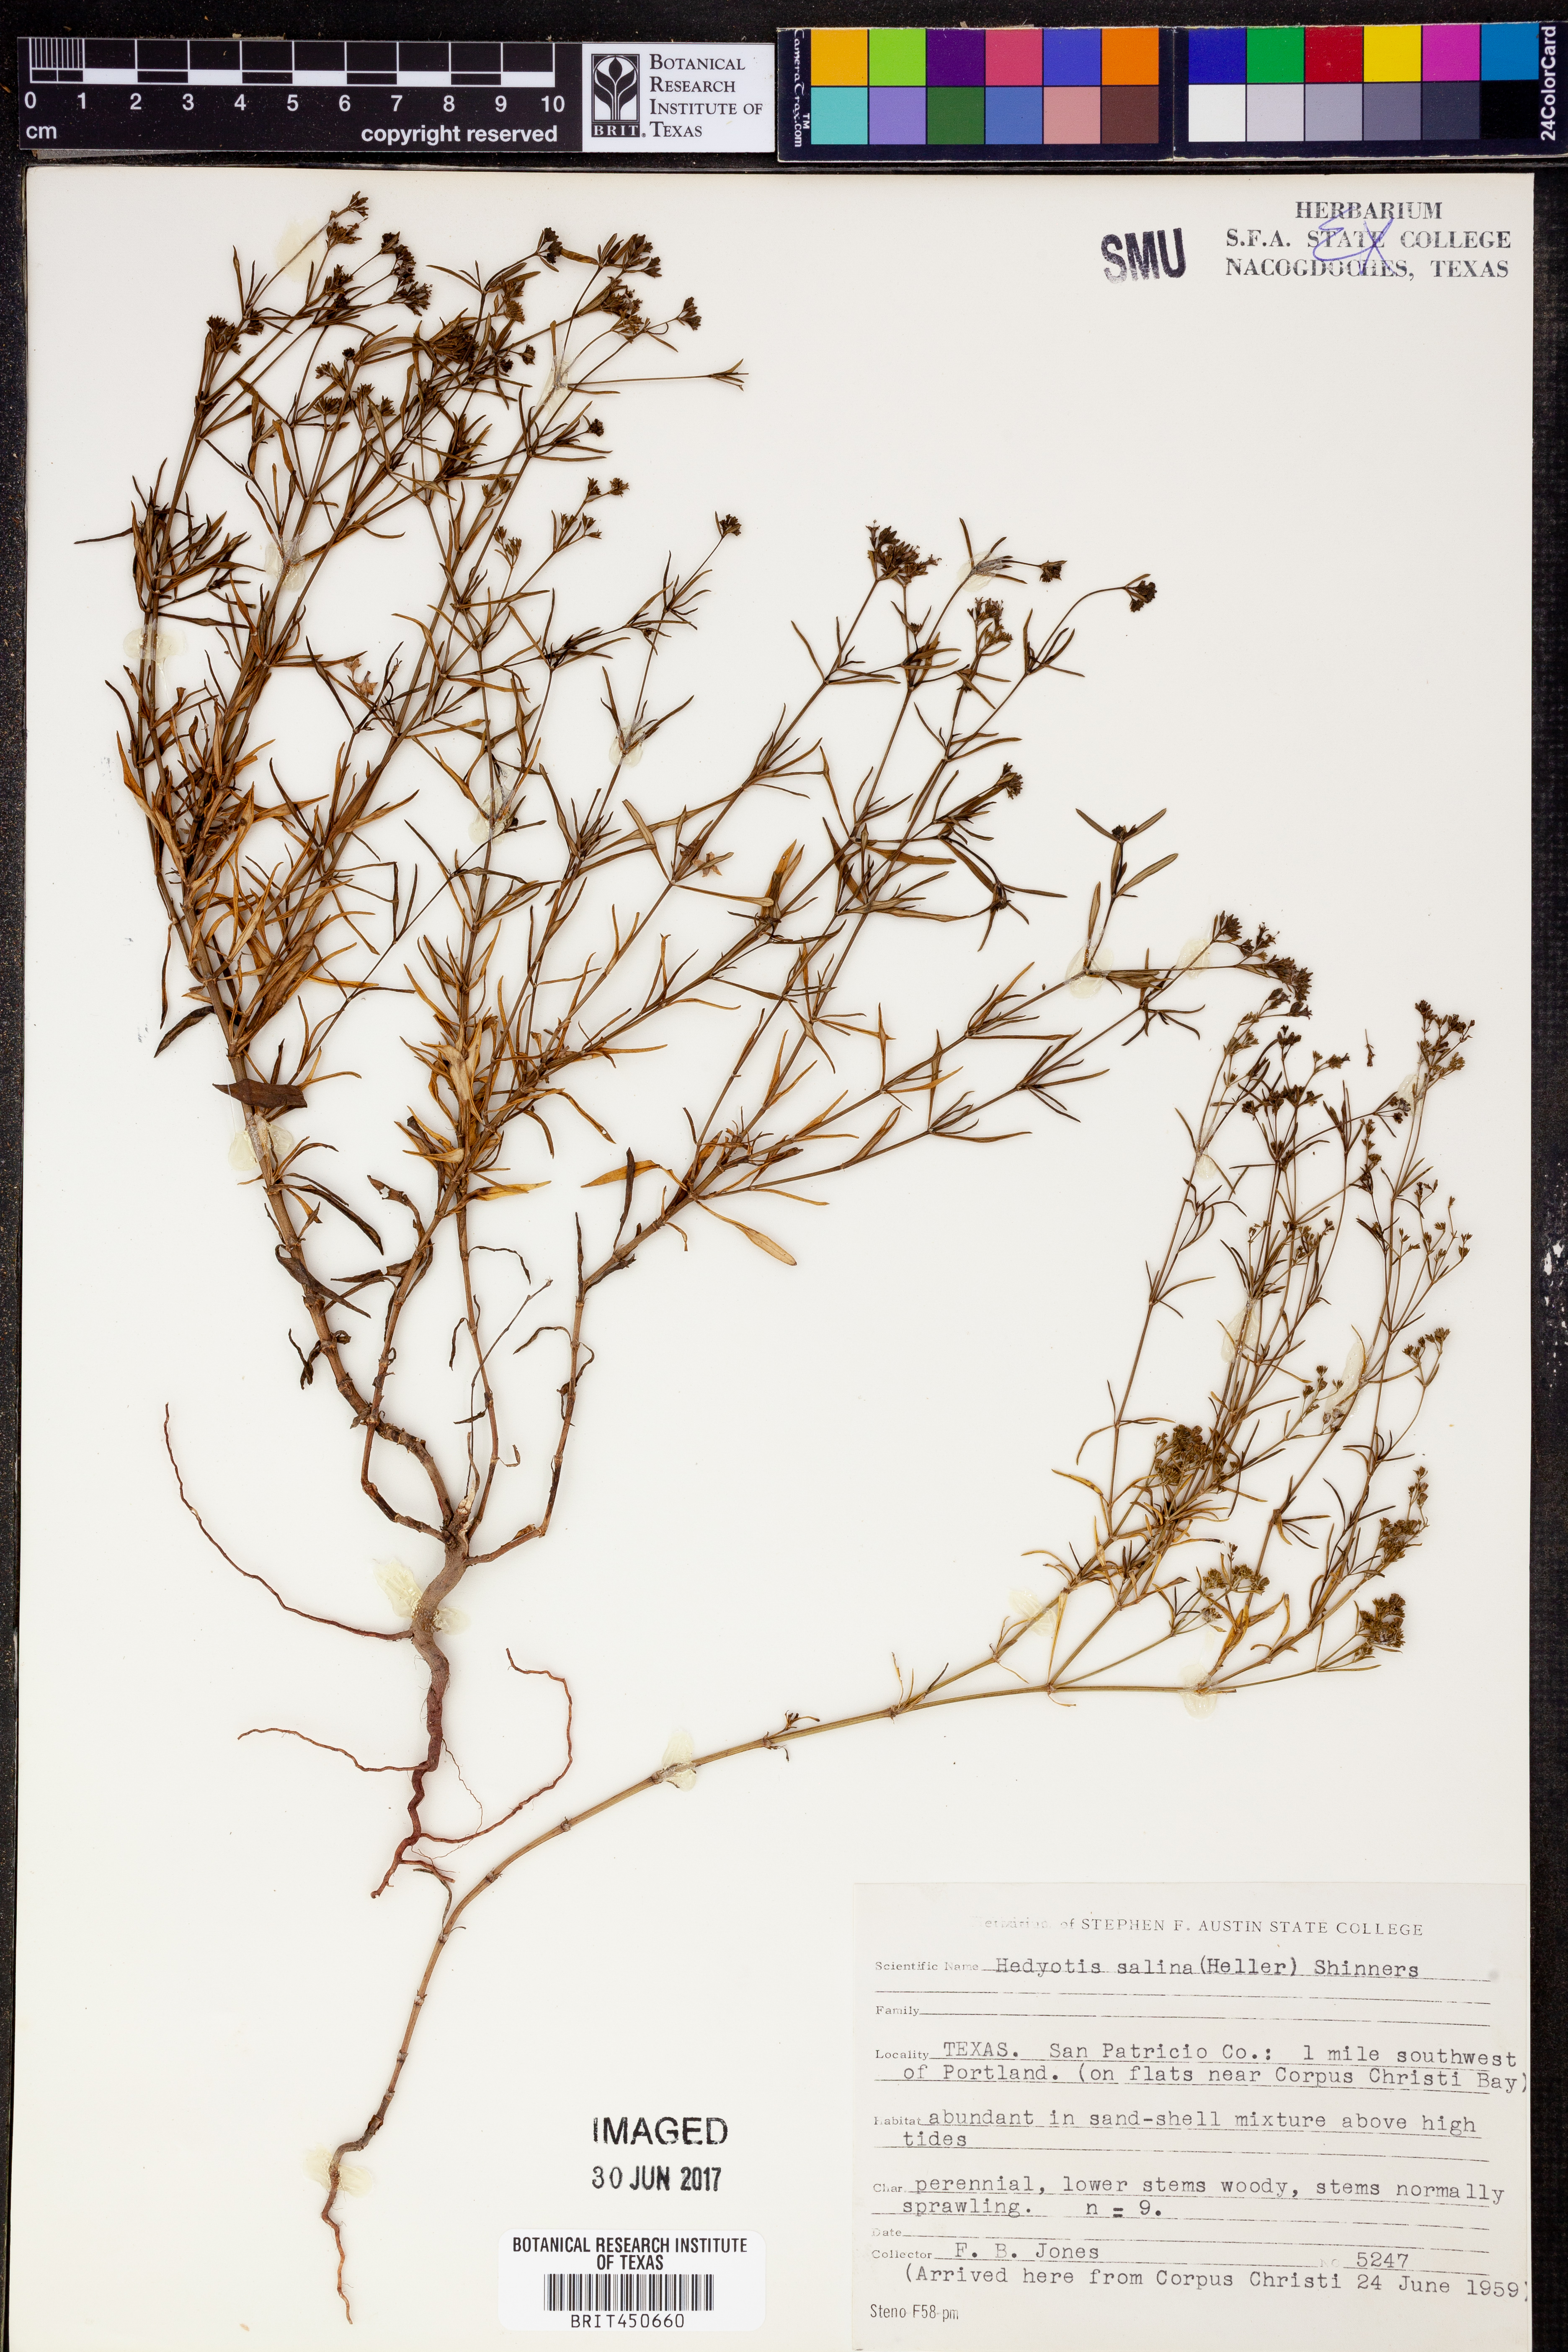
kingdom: Plantae
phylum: Tracheophyta
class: Magnoliopsida
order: Gentianales
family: Rubiaceae
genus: Stenaria
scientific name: Stenaria nigricans
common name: Diamondflowers
